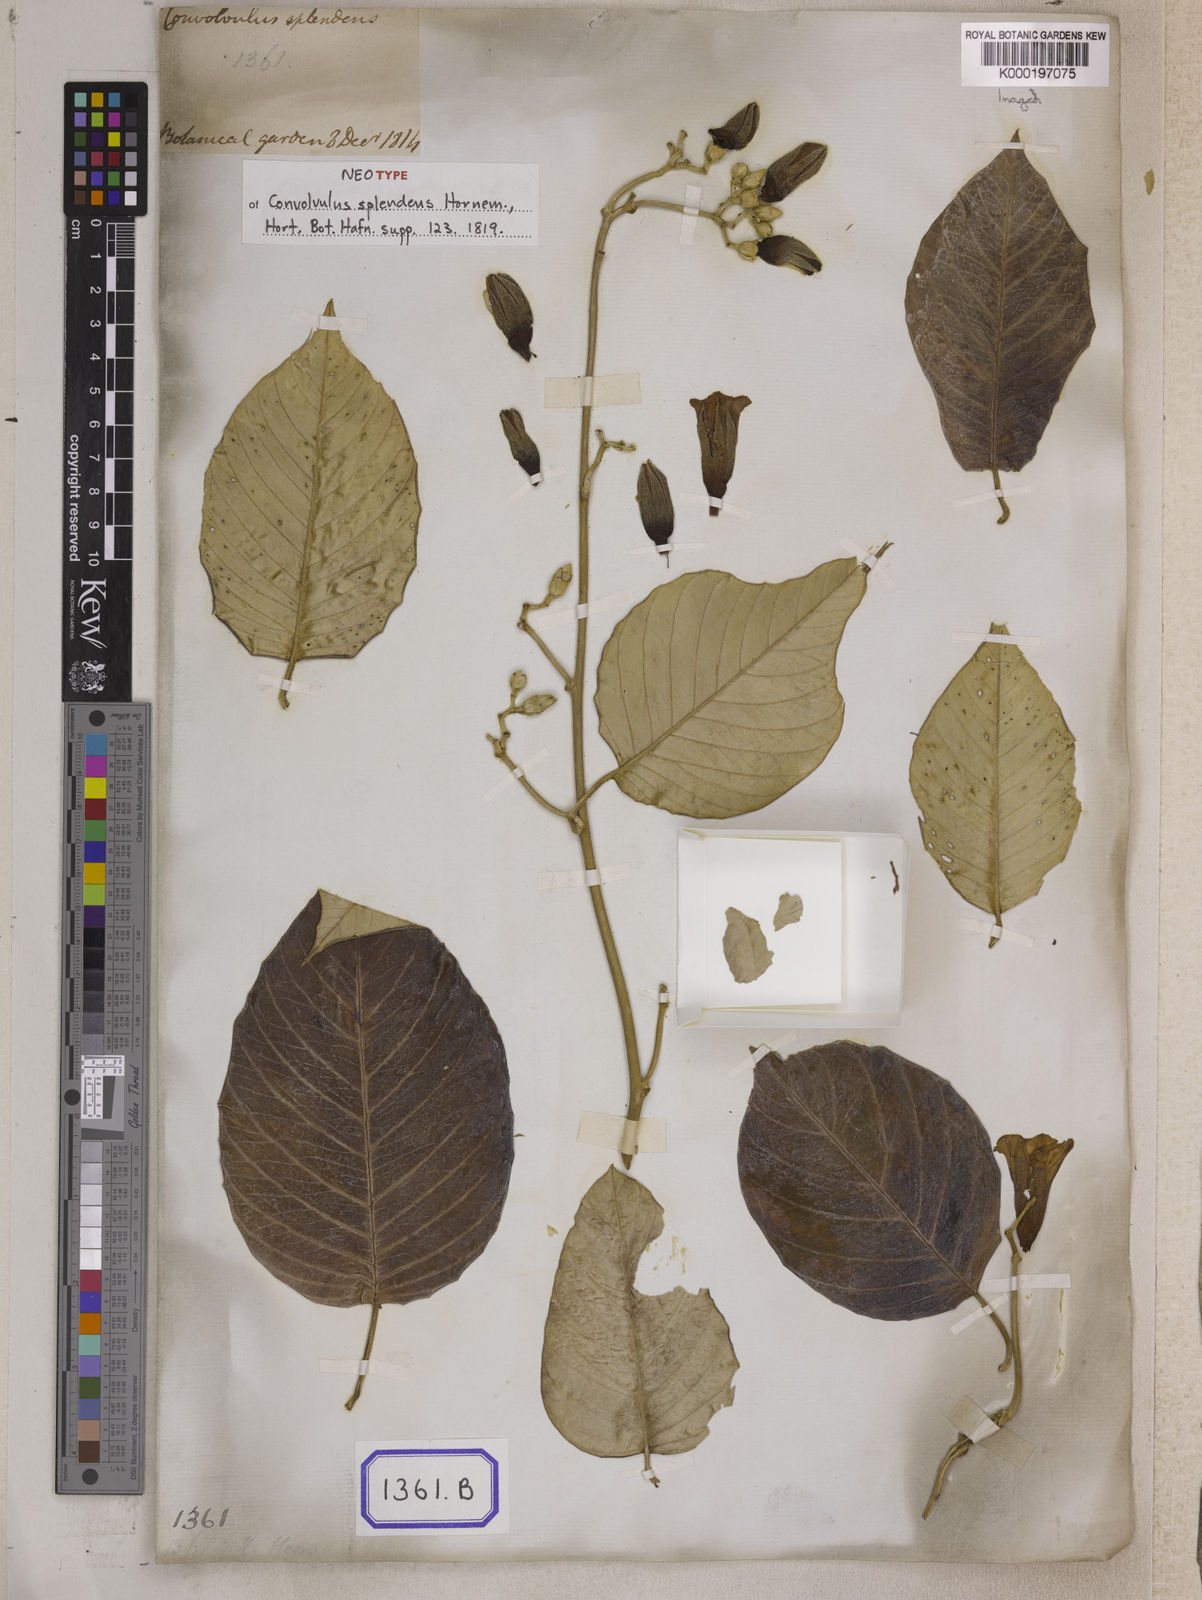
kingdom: Plantae
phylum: Tracheophyta
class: Magnoliopsida
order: Solanales
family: Convolvulaceae
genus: Argyreia
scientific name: Argyreia splendens
